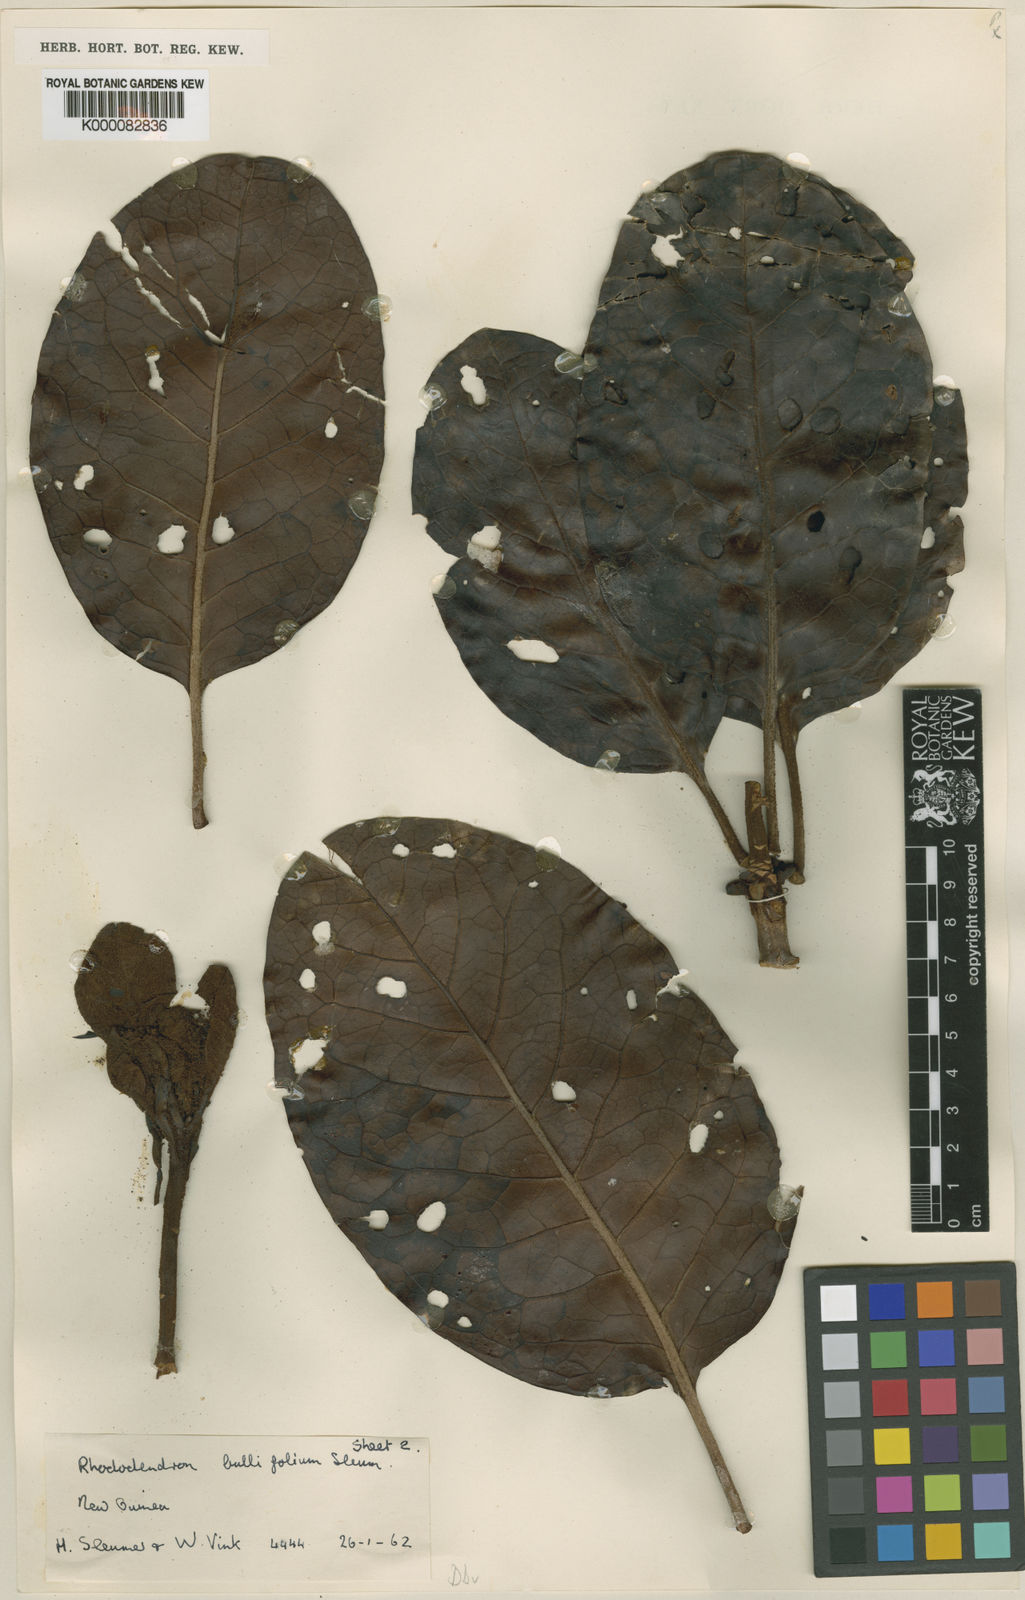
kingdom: Plantae
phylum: Tracheophyta
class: Magnoliopsida
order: Ericales
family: Ericaceae
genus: Rhododendron
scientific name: Rhododendron bullifolium
